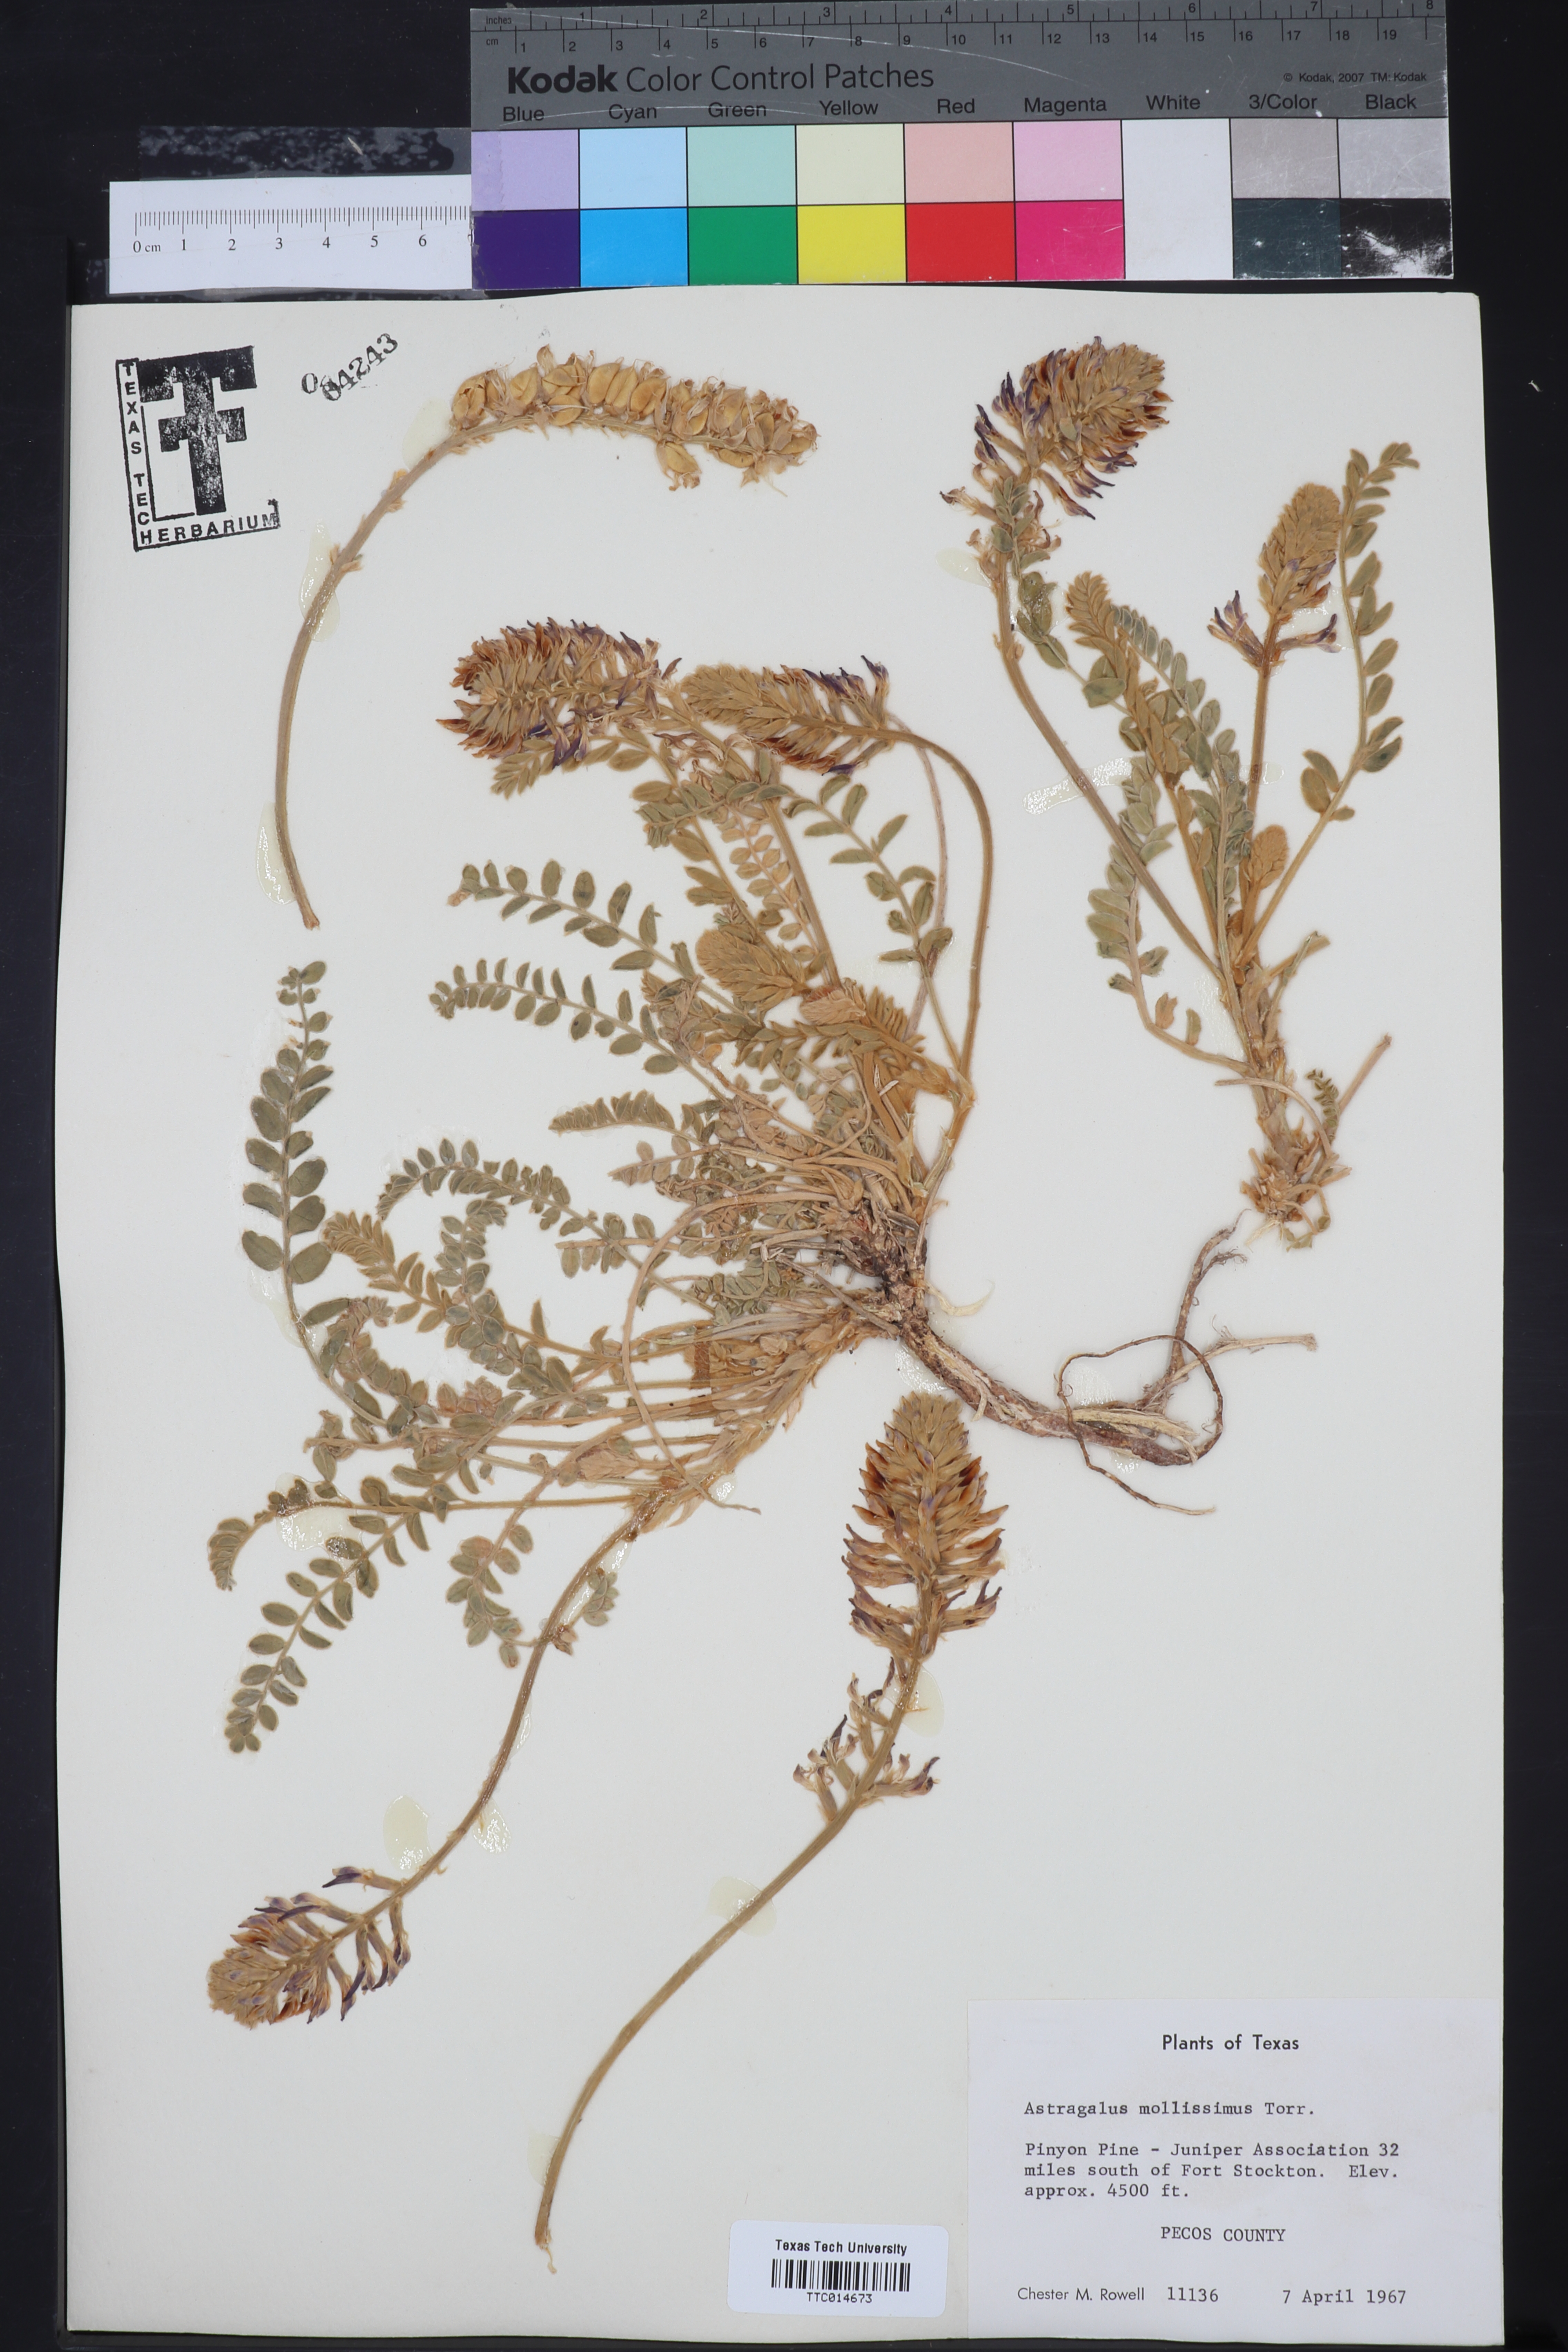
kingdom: Plantae
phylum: Tracheophyta
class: Magnoliopsida
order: Fabales
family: Fabaceae
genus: Astragalus
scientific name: Astragalus mollissimus
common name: Woolly locoweed
